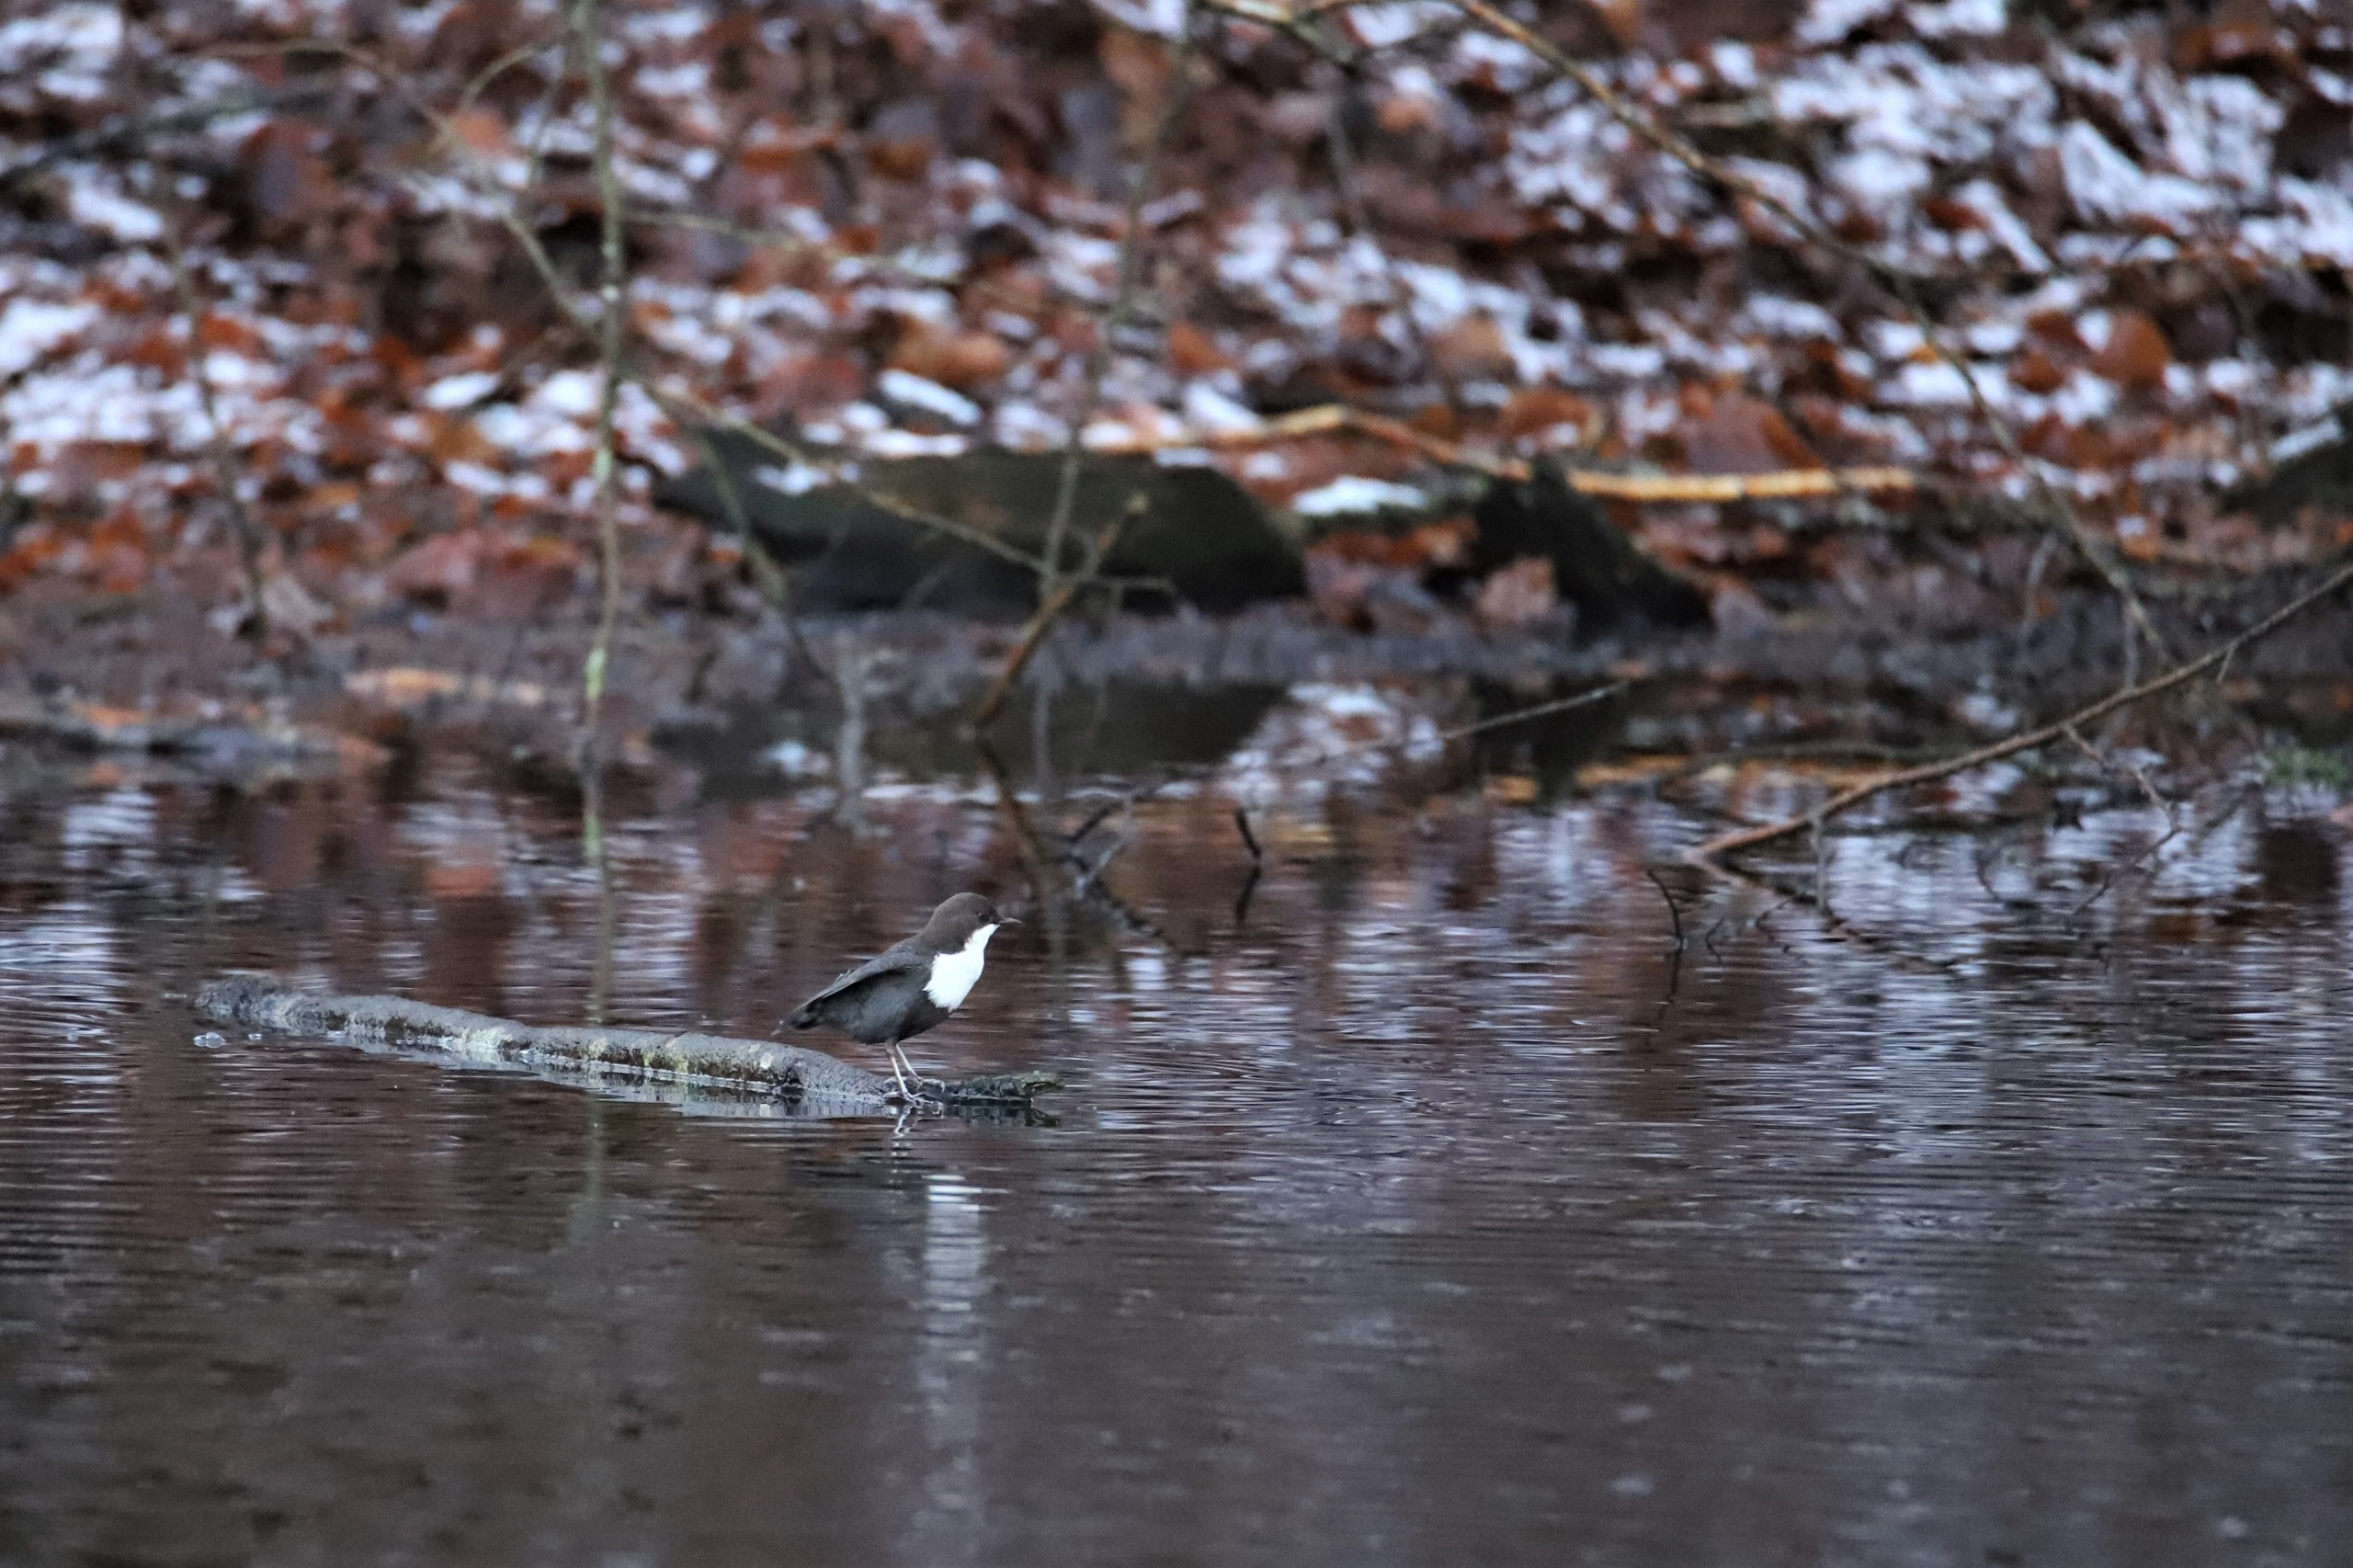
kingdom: Animalia
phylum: Chordata
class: Aves
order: Passeriformes
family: Cinclidae
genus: Cinclus
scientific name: Cinclus cinclus
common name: Vandstær
